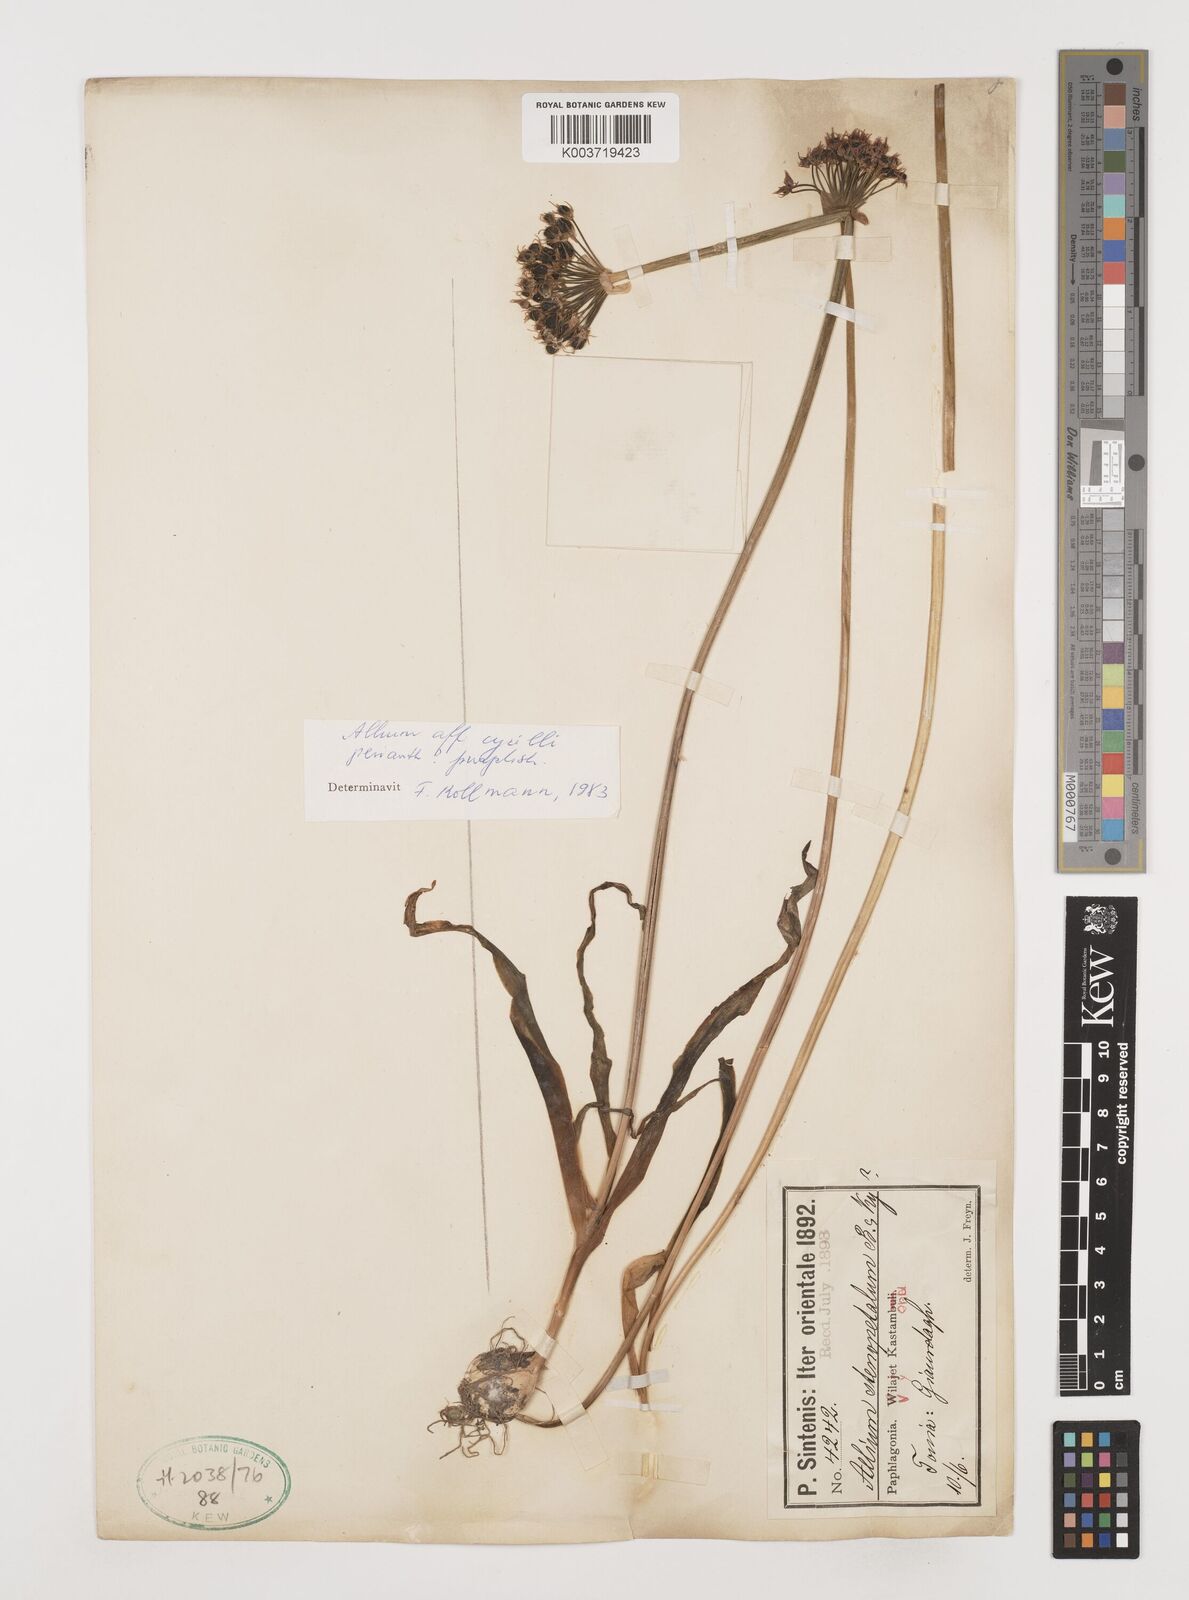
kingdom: Plantae
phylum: Tracheophyta
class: Liliopsida
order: Asparagales
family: Amaryllidaceae
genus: Allium
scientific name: Allium cyrilli
